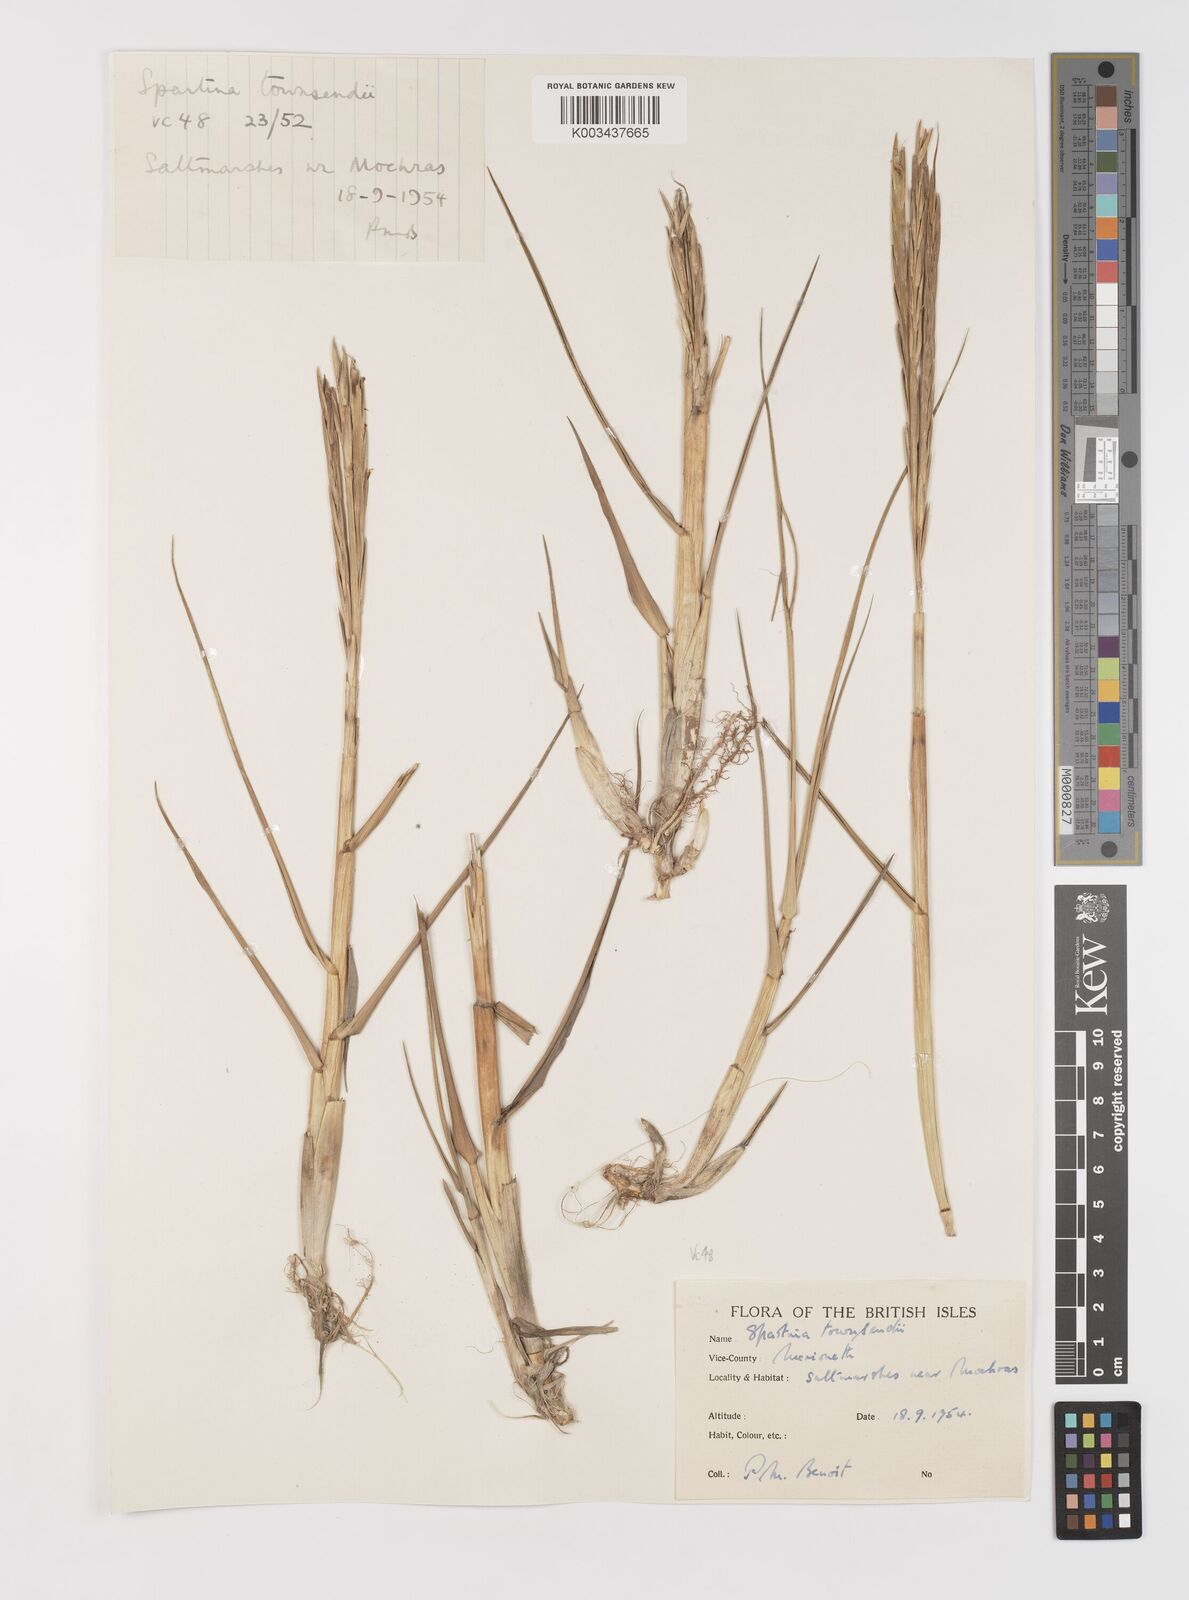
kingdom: Plantae
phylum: Tracheophyta
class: Liliopsida
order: Poales
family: Poaceae
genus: Sporobolus
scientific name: Sporobolus anglicus
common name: English cordgrass
